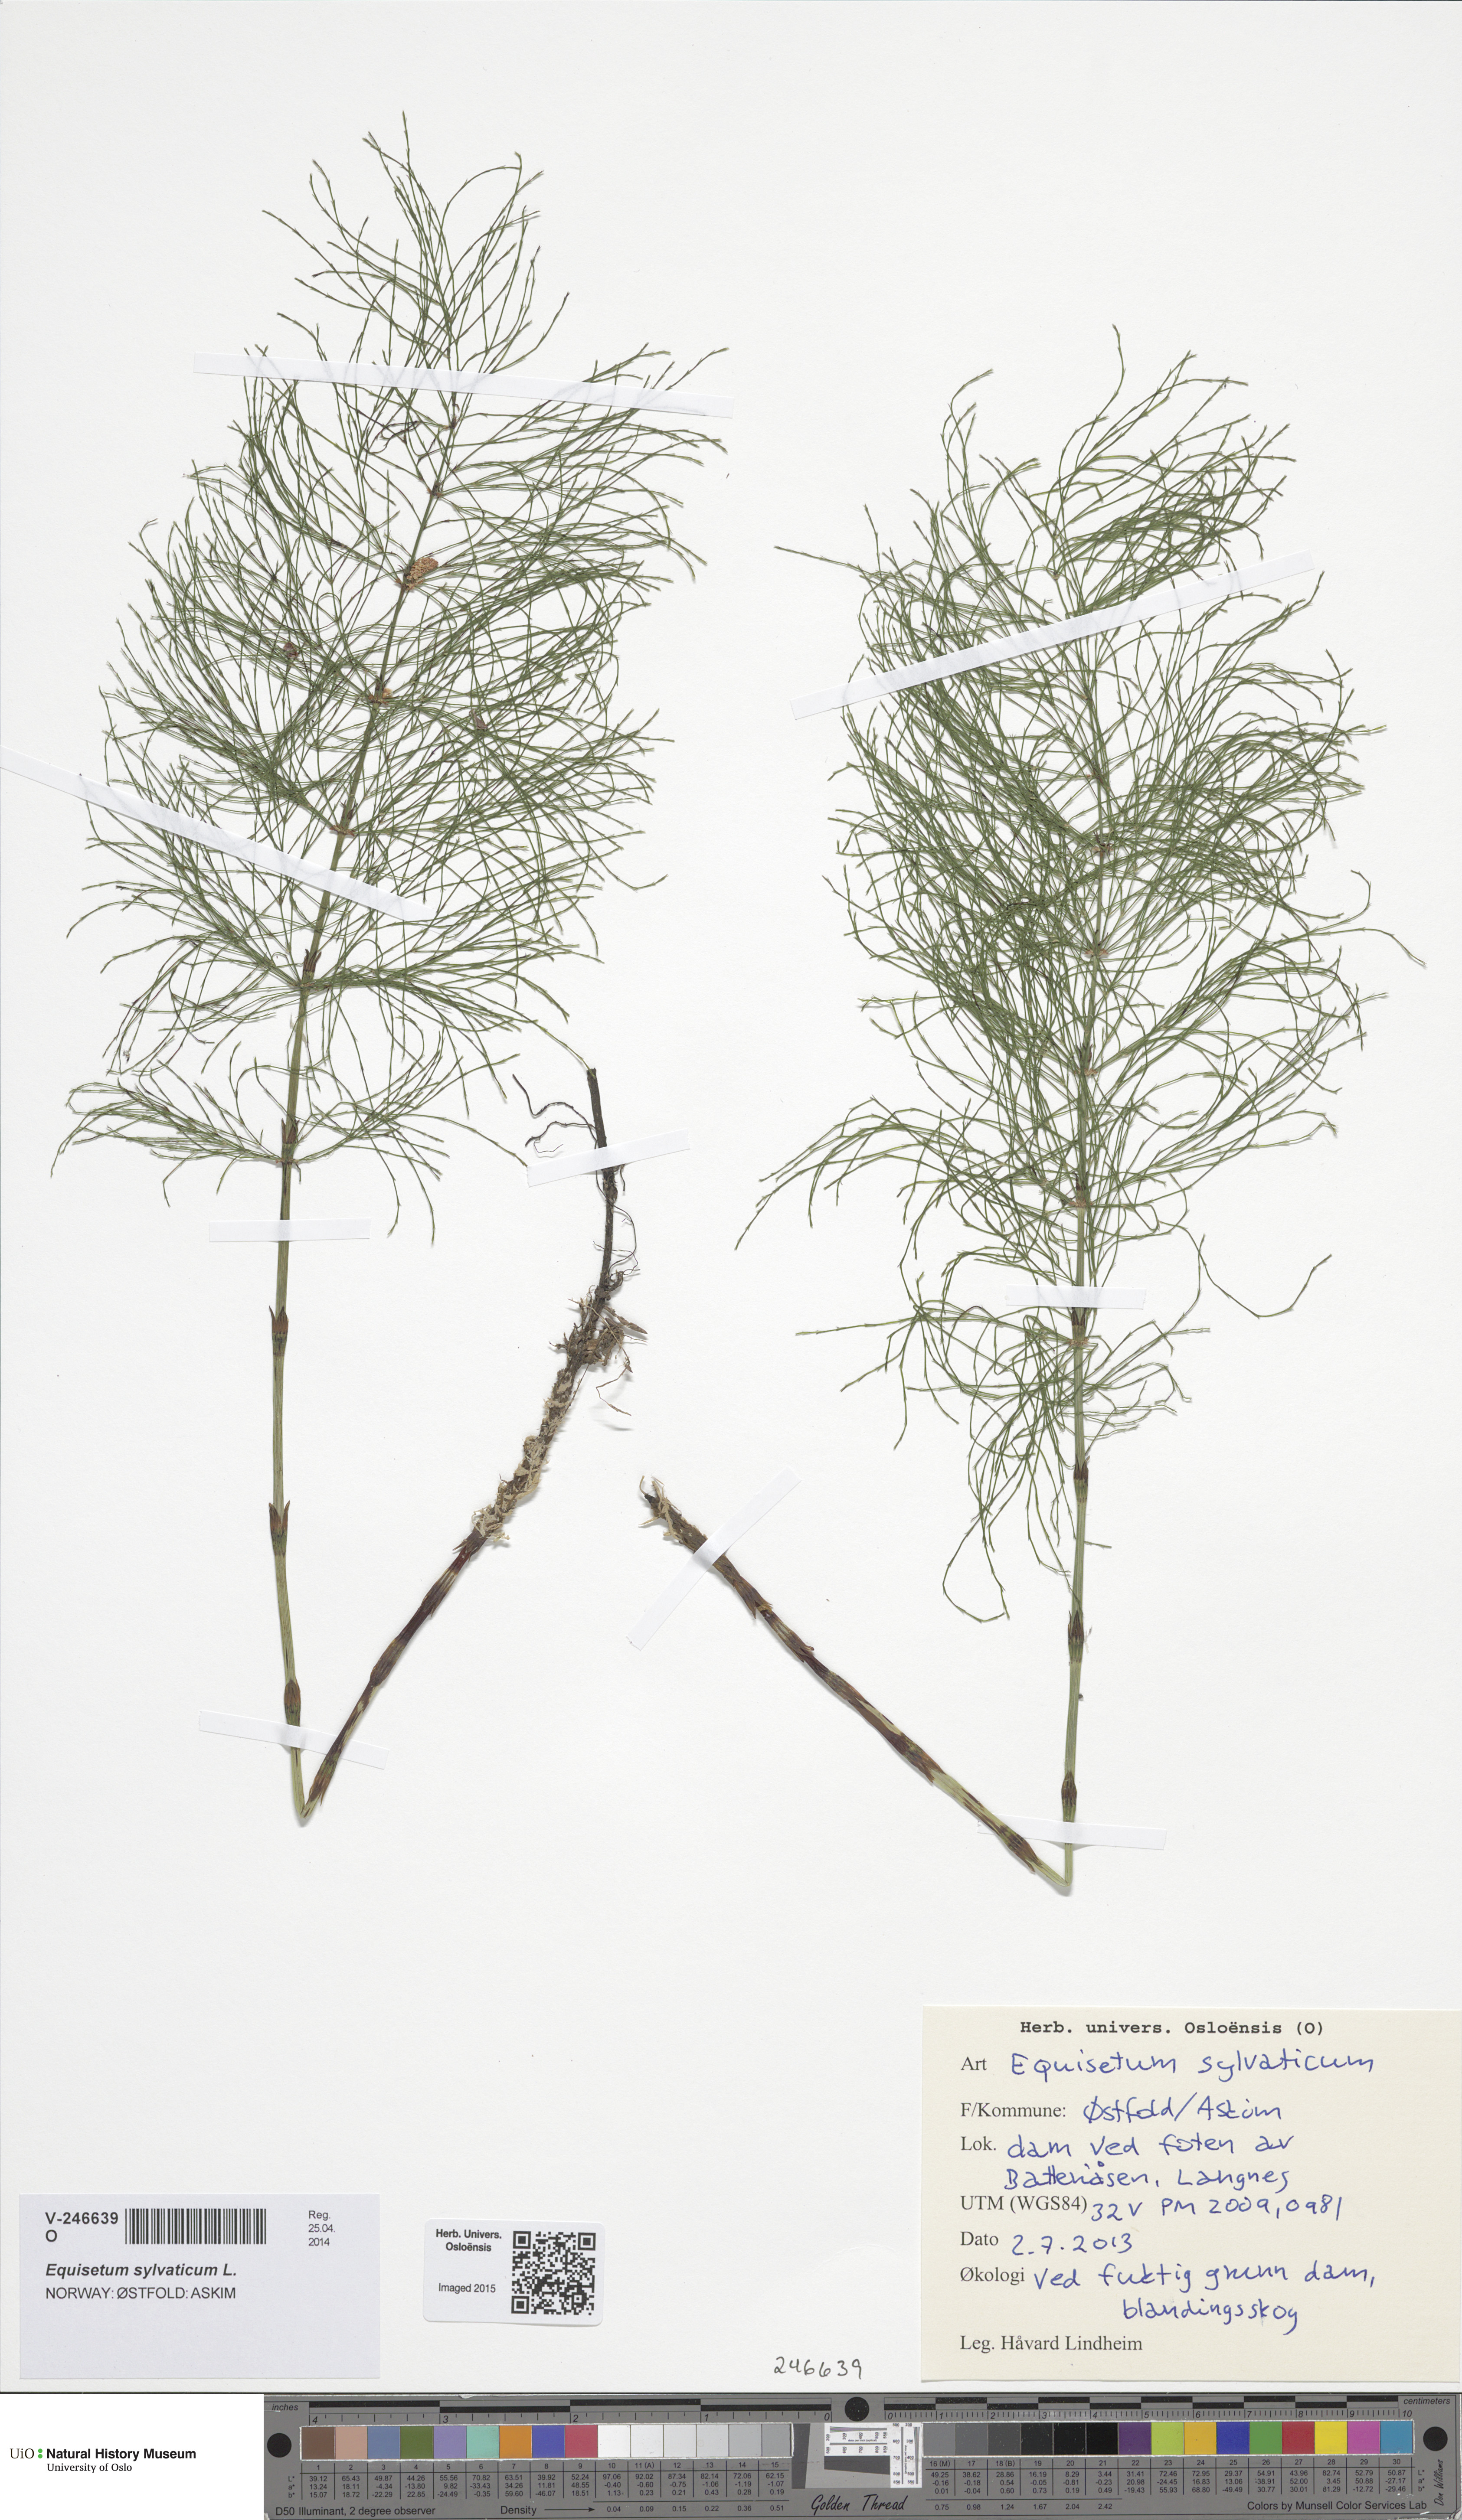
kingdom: Plantae
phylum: Tracheophyta
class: Polypodiopsida
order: Equisetales
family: Equisetaceae
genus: Equisetum
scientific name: Equisetum sylvaticum
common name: Wood horsetail
